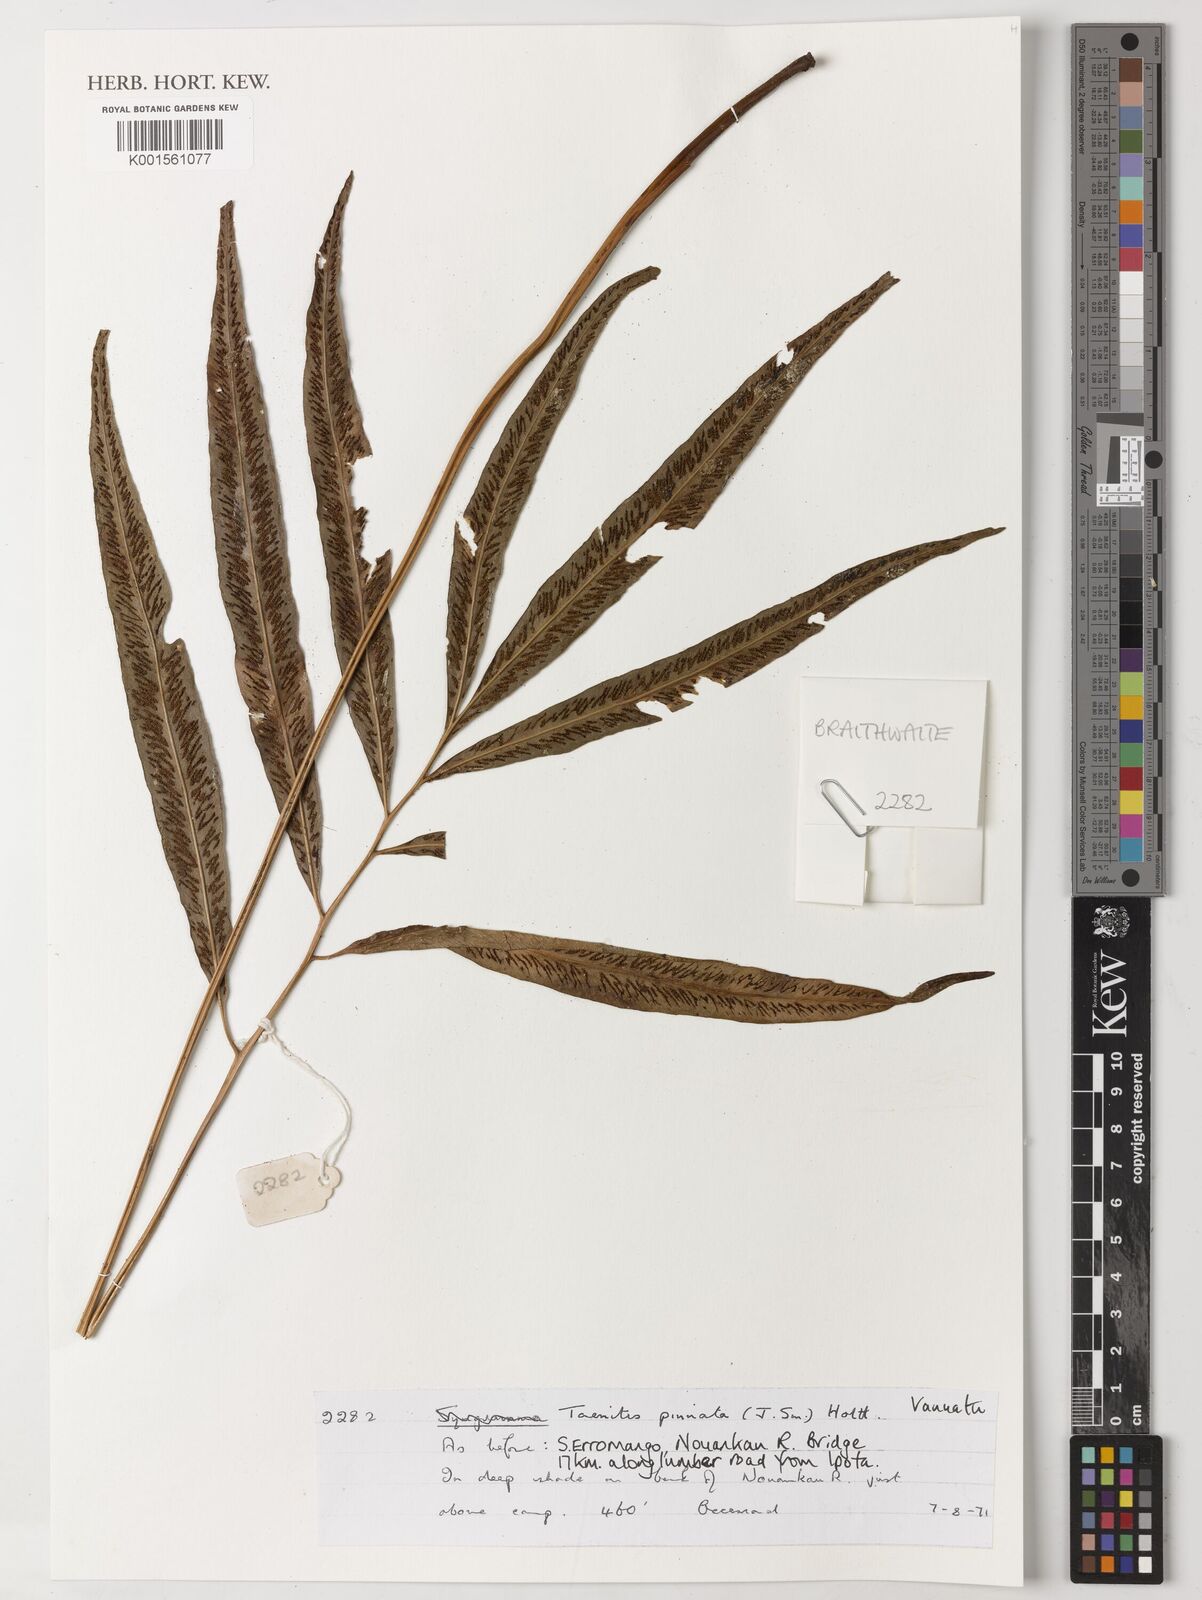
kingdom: Plantae
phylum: Tracheophyta
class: Polypodiopsida
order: Polypodiales
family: Pteridaceae
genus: Taenitis
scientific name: Taenitis pinnata
